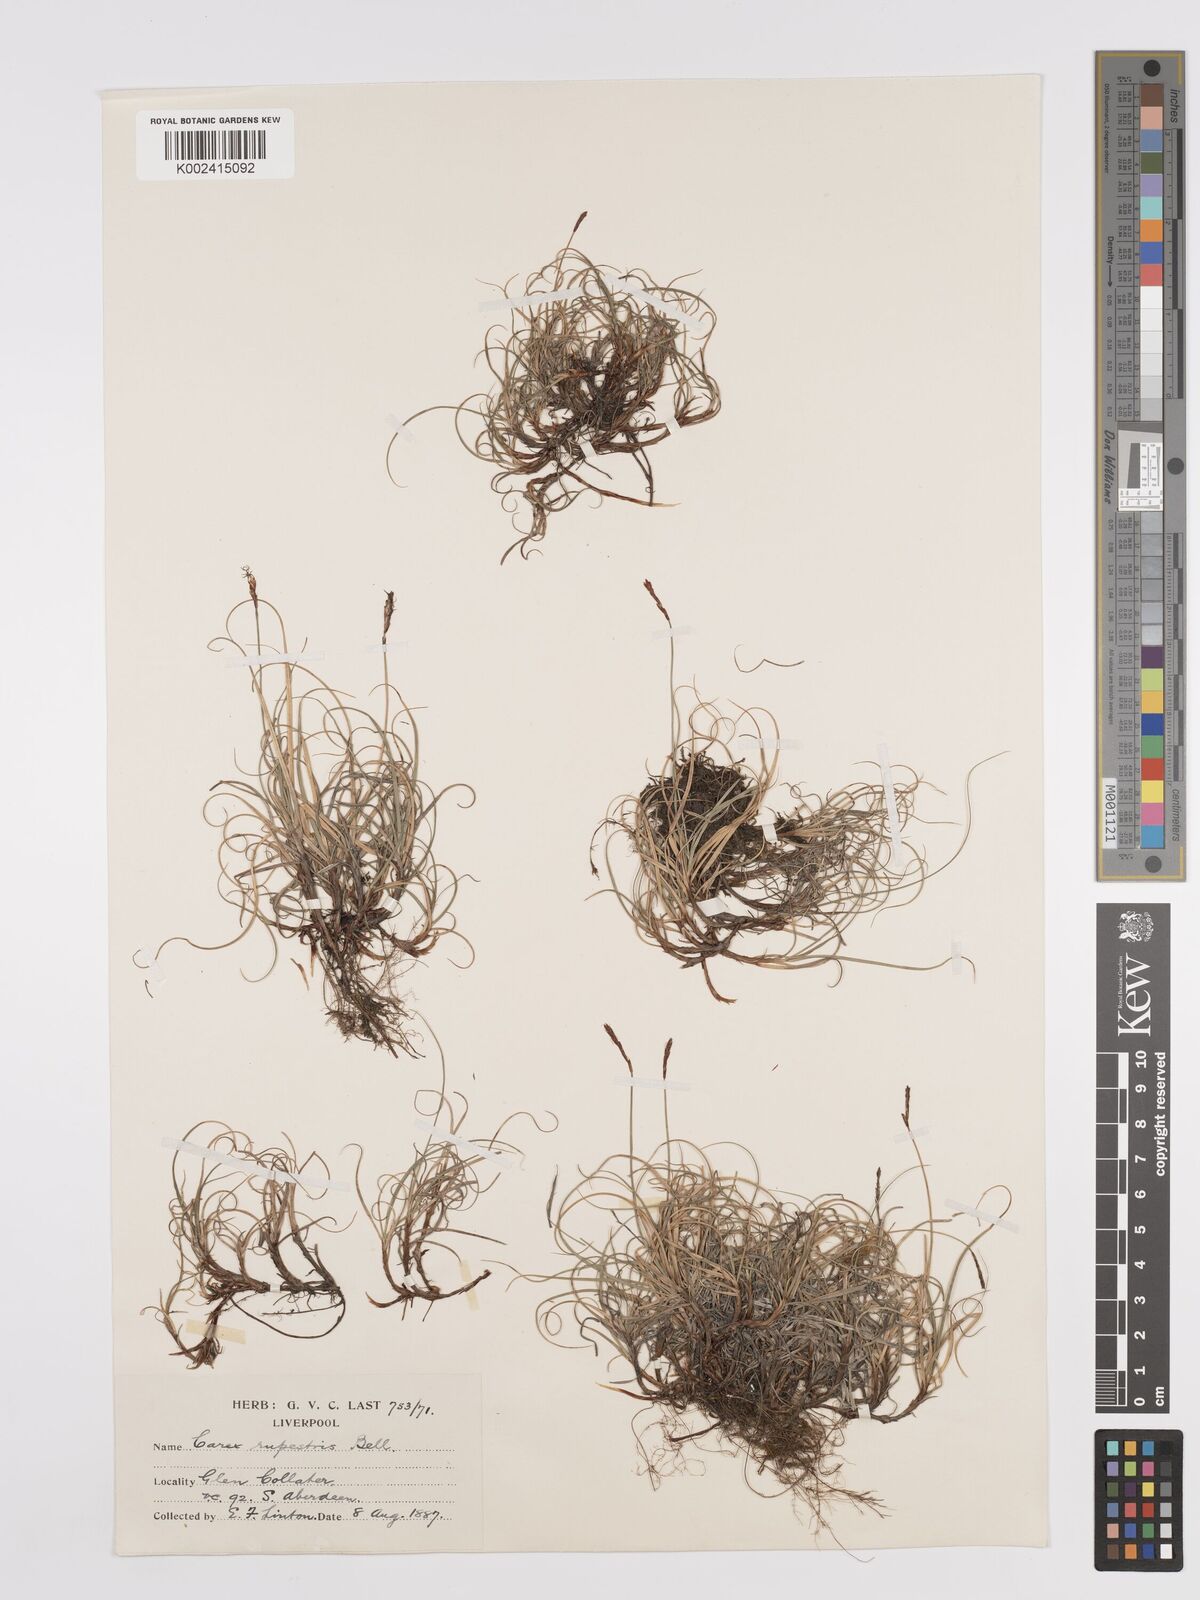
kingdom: Plantae
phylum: Tracheophyta
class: Liliopsida
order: Poales
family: Cyperaceae
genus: Carex
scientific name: Carex rupestris
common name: Rock sedge
